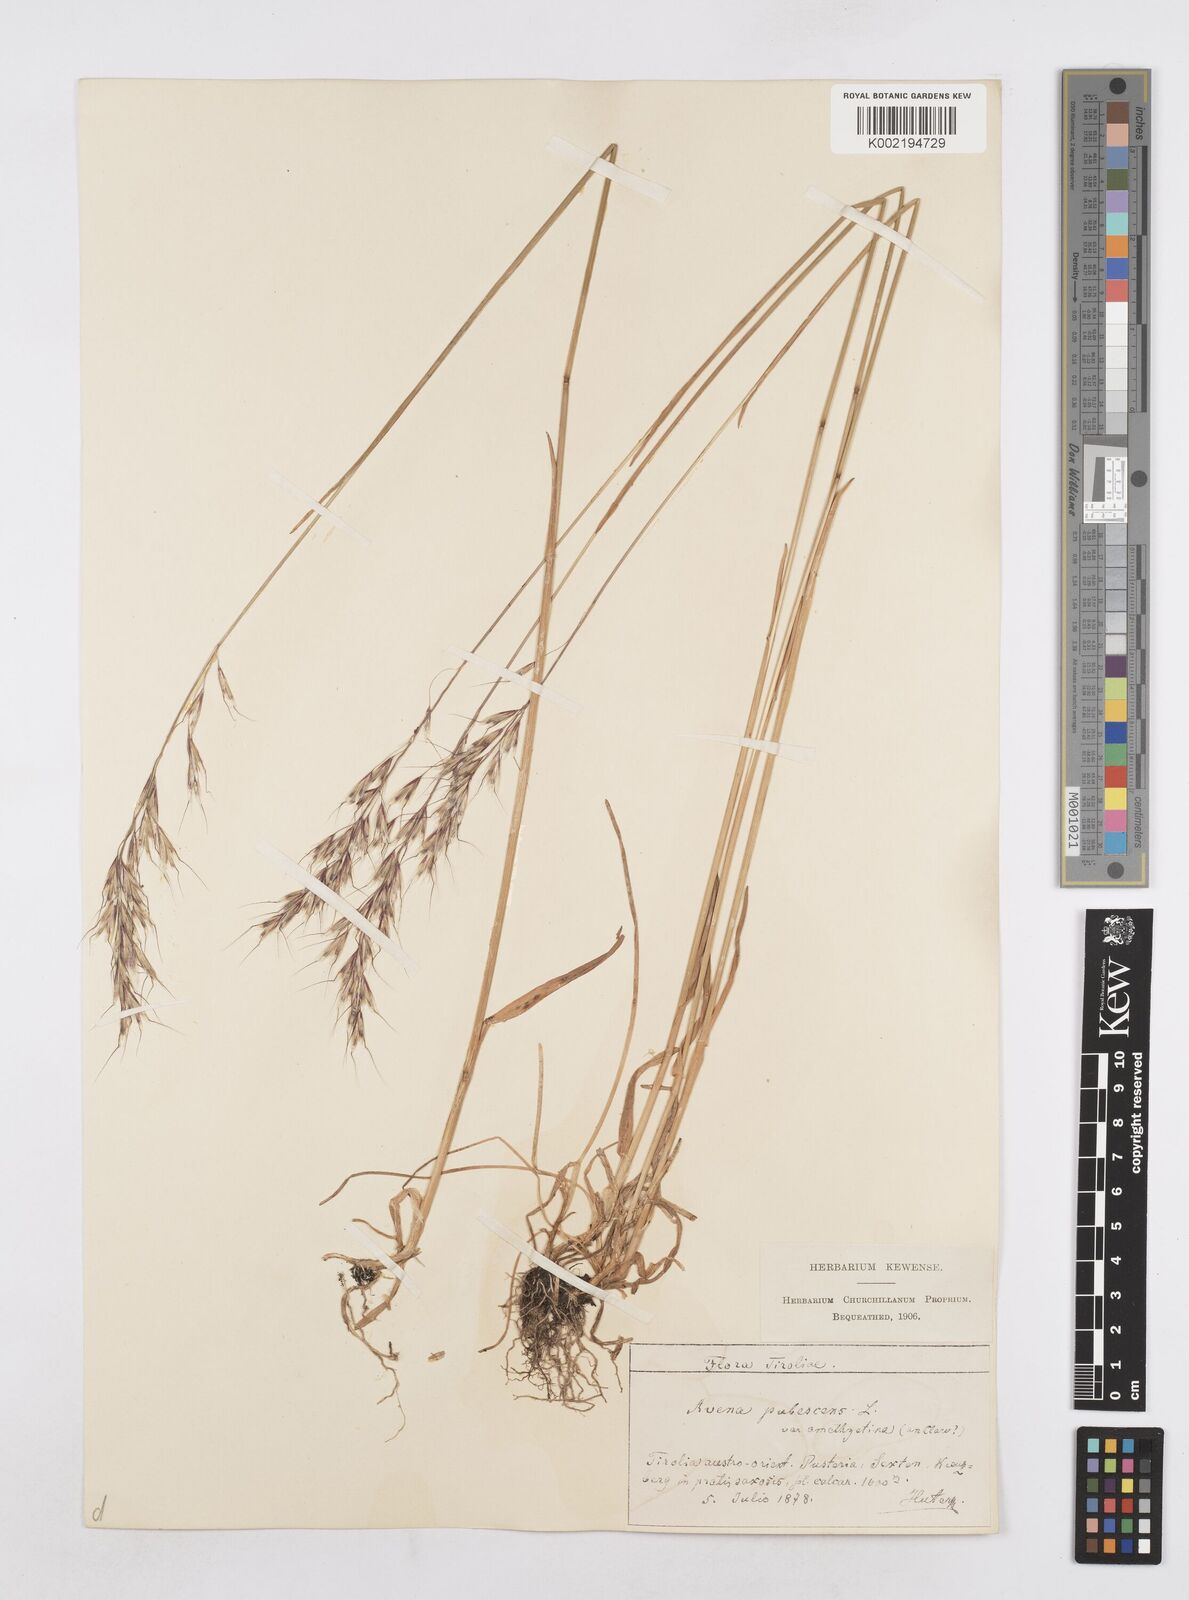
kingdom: Plantae
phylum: Tracheophyta
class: Liliopsida
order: Poales
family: Poaceae
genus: Avenula
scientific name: Avenula pubescens
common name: Downy alpine oatgrass
